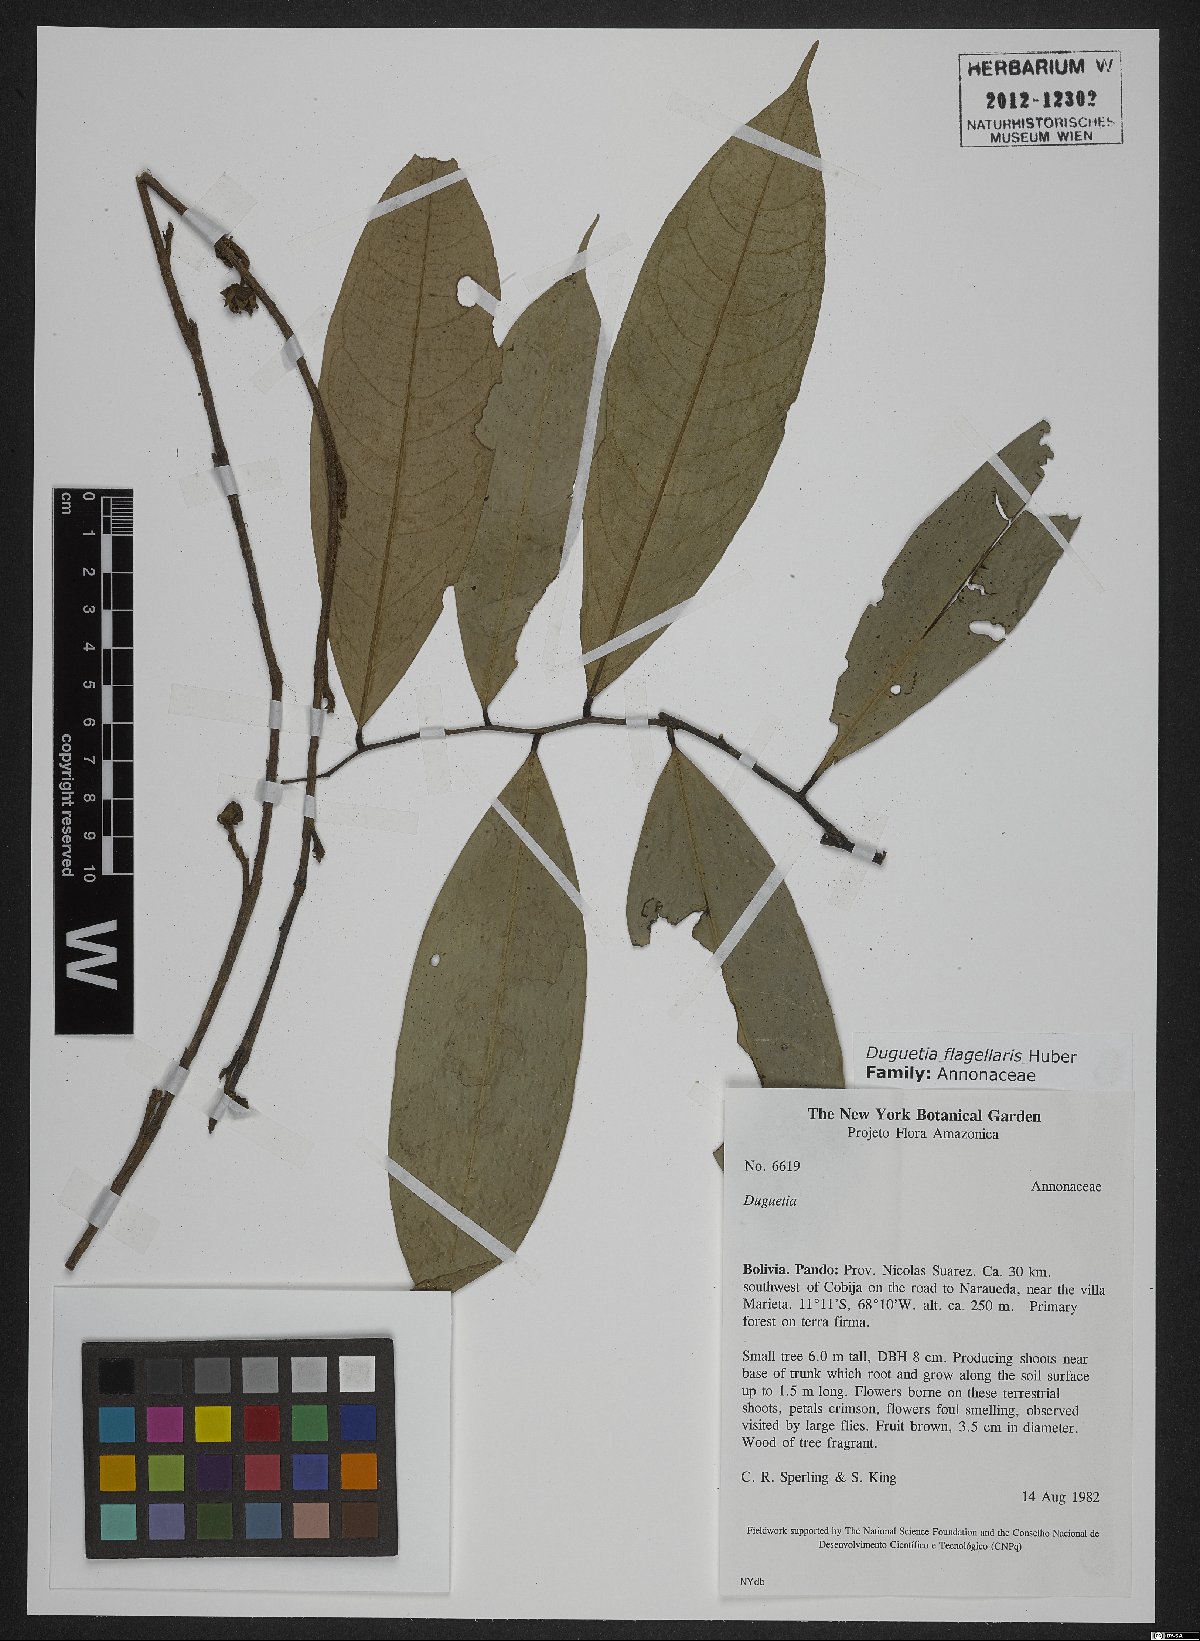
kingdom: Plantae
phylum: Tracheophyta
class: Magnoliopsida
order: Magnoliales
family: Annonaceae
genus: Duguetia
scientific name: Duguetia flagellaris
